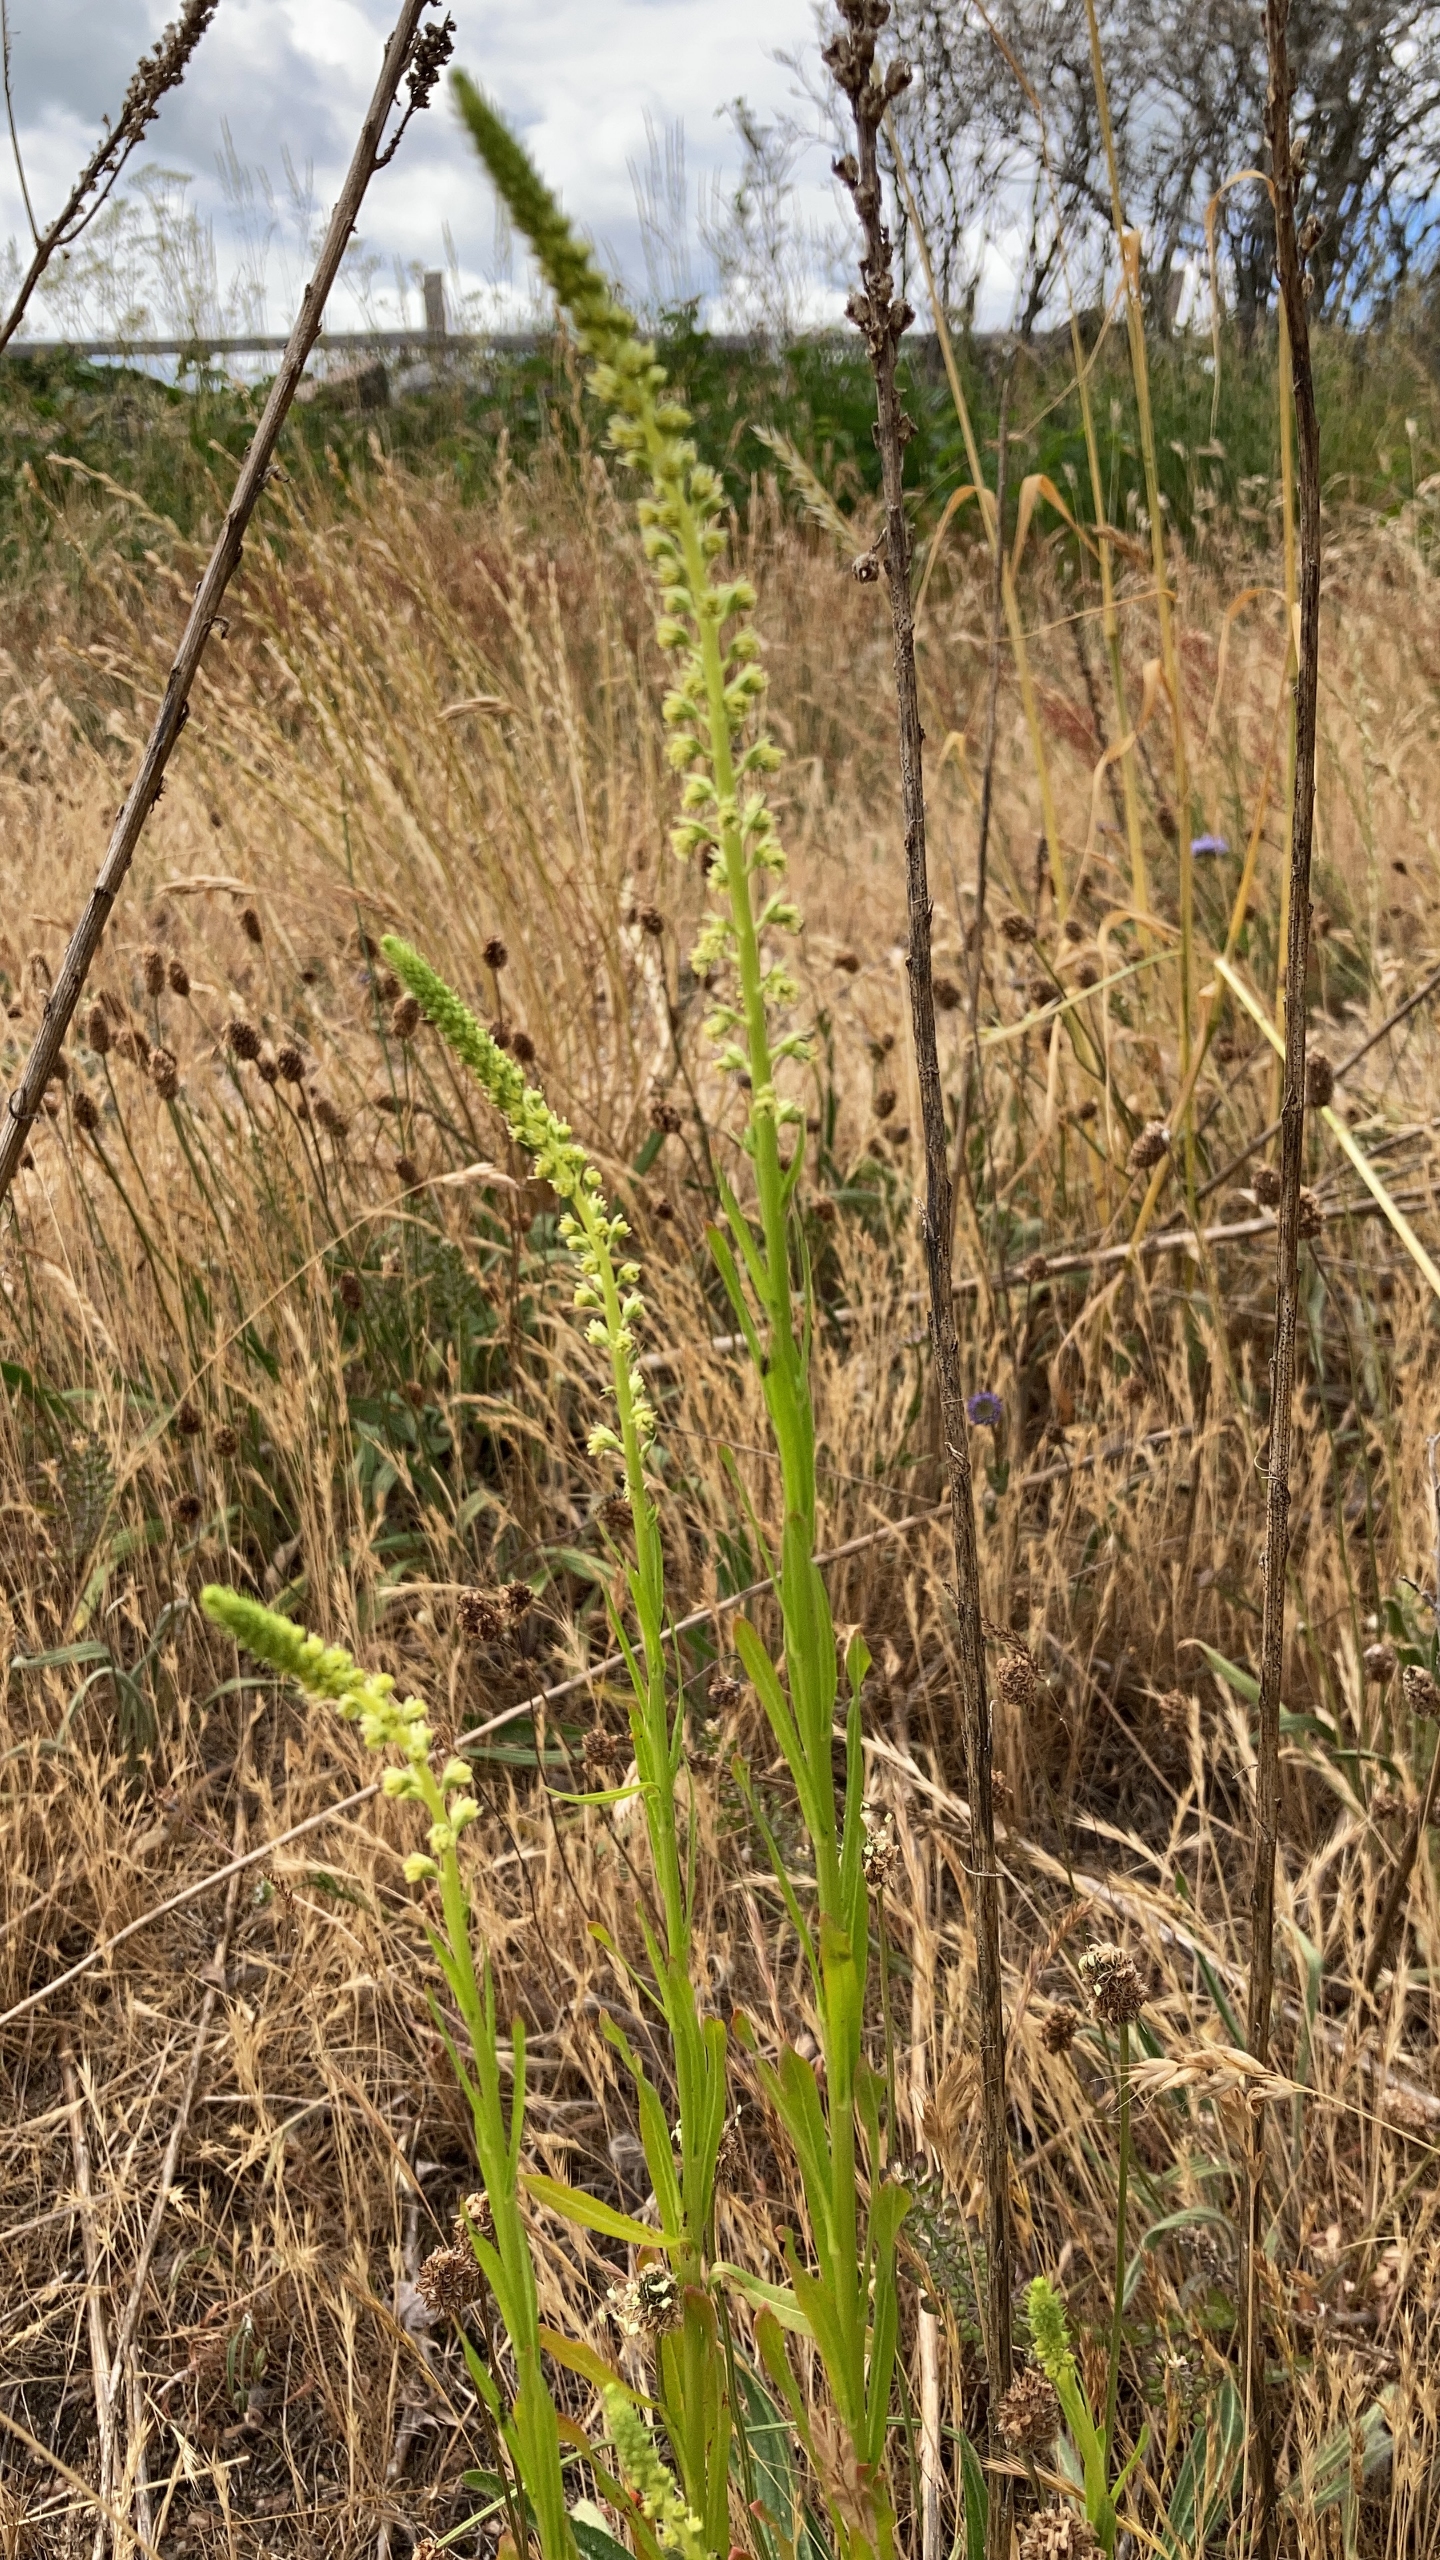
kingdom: Plantae
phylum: Tracheophyta
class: Magnoliopsida
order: Brassicales
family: Resedaceae
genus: Reseda
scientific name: Reseda luteola
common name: Farve-reseda
